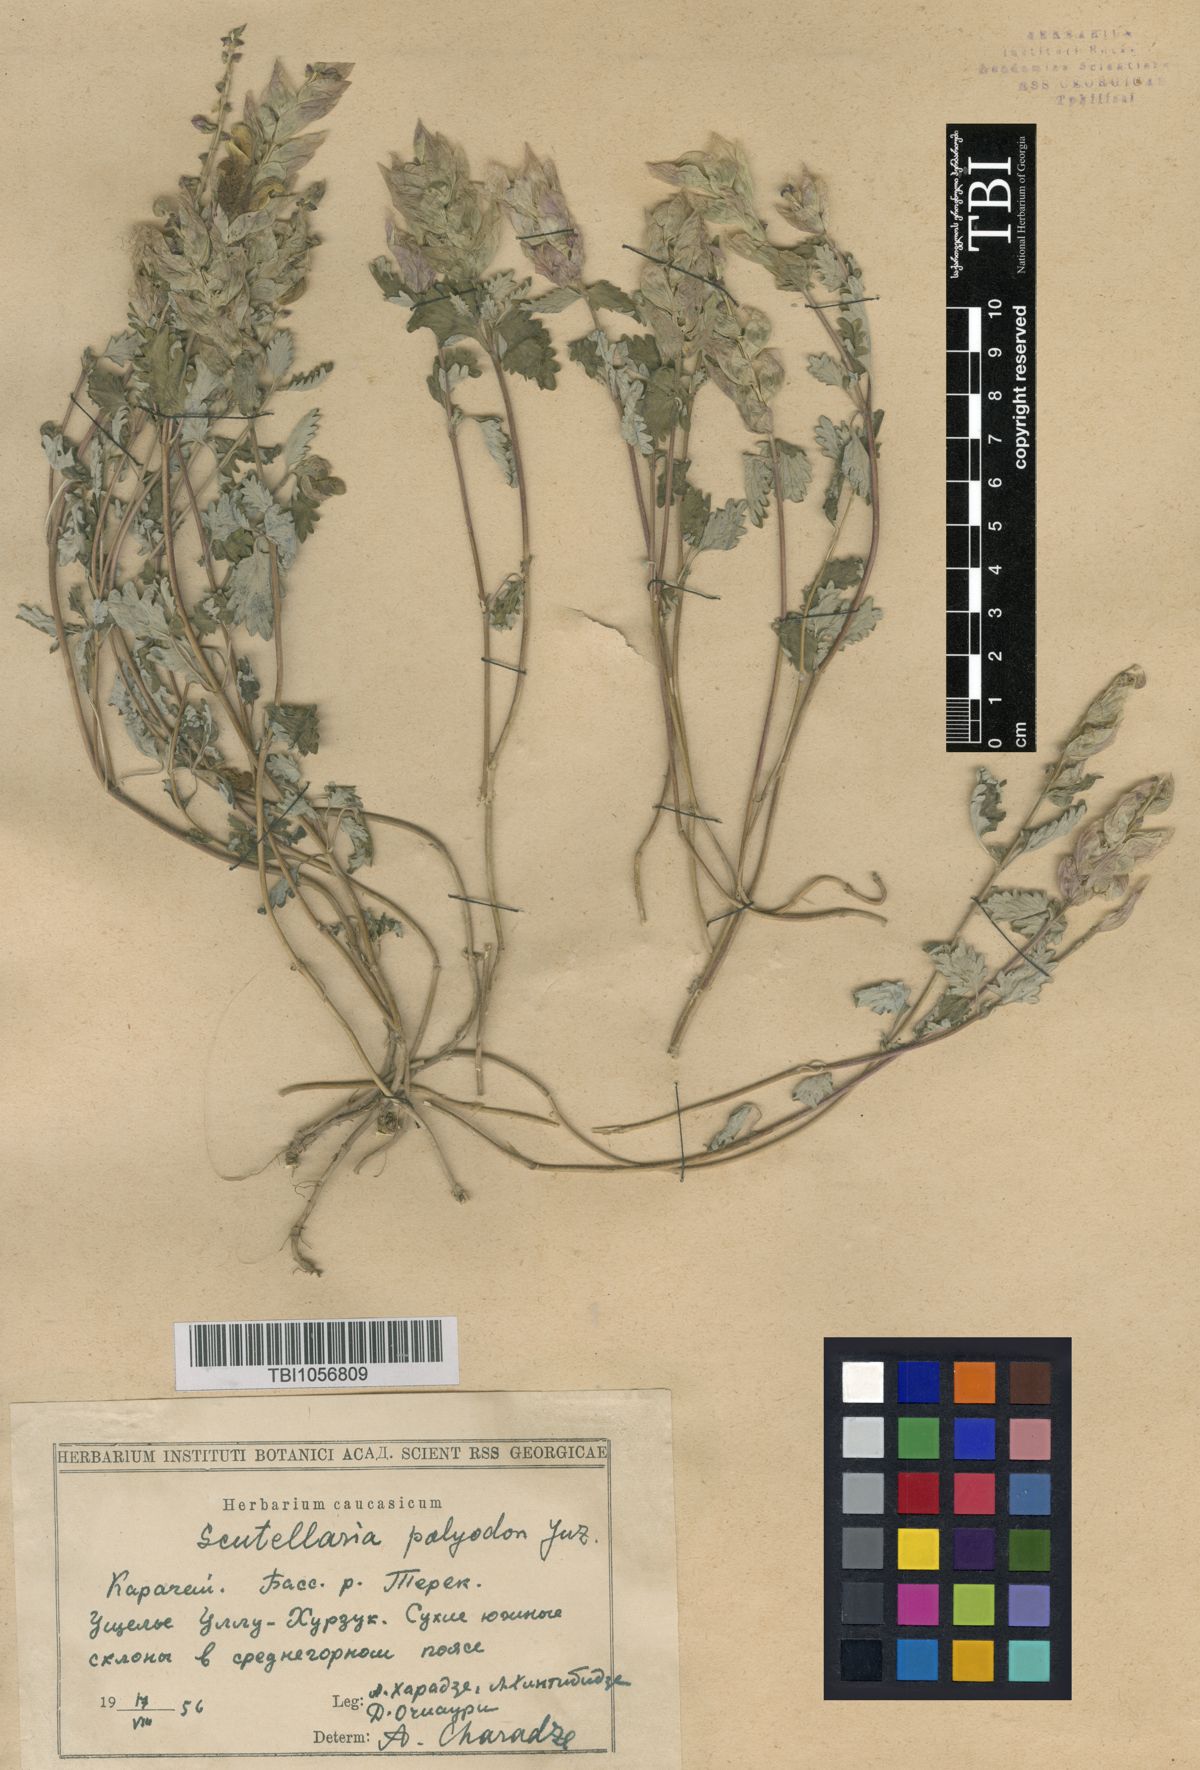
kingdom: Plantae
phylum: Tracheophyta
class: Magnoliopsida
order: Lamiales
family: Lamiaceae
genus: Scutellaria
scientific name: Scutellaria caucasica
